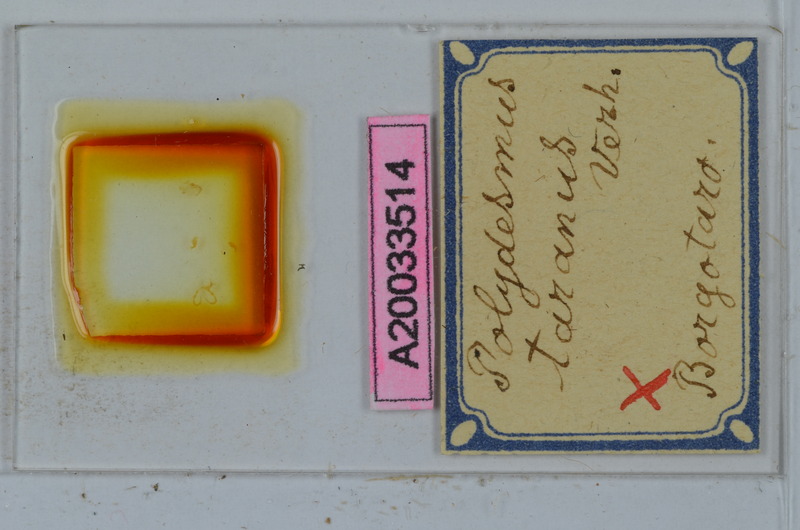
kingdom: Animalia
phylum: Arthropoda
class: Diplopoda
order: Polydesmida
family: Polydesmidae
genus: Polydesmus
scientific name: Polydesmus taranus
